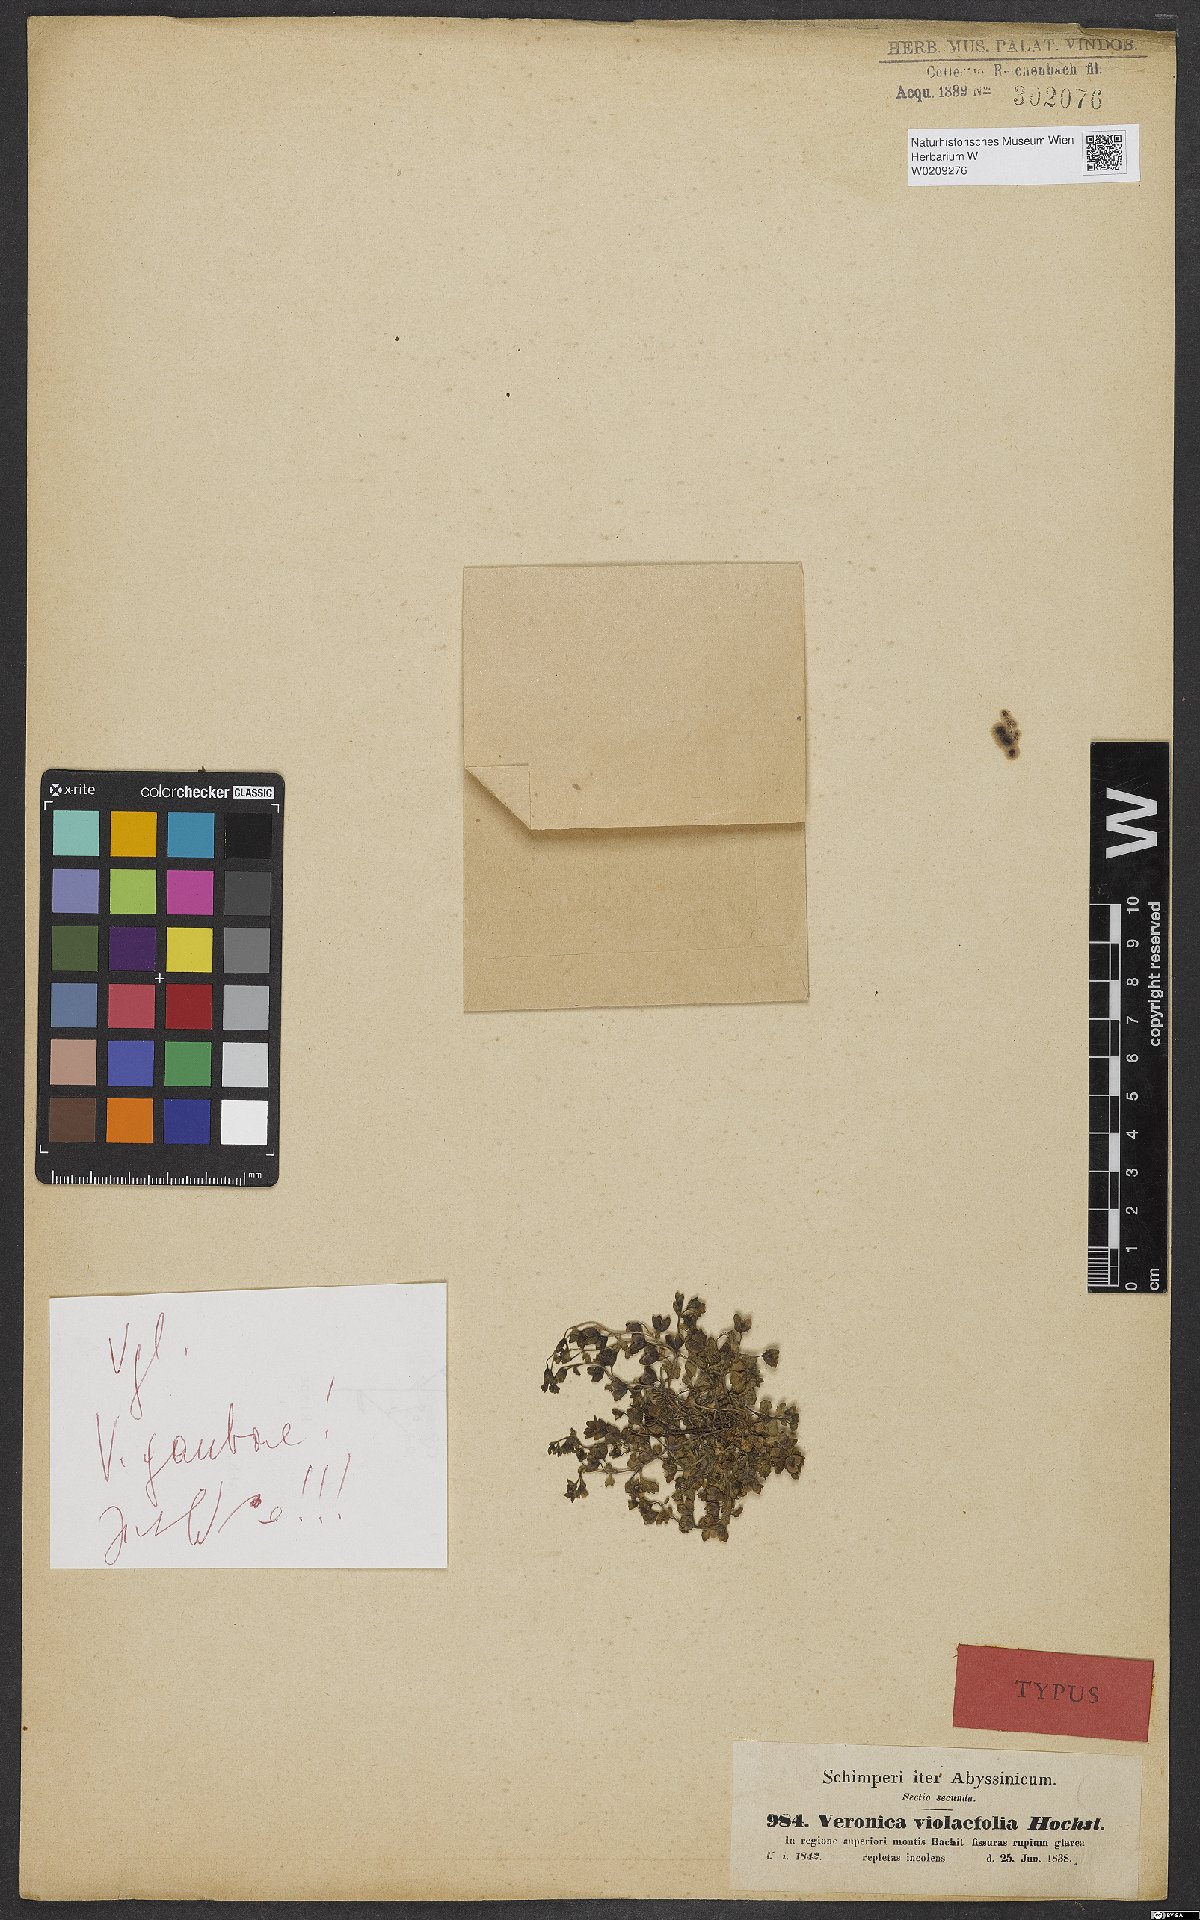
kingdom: Plantae
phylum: Tracheophyta
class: Magnoliopsida
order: Lamiales
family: Plantaginaceae
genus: Veronica
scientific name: Veronica violaefolia
